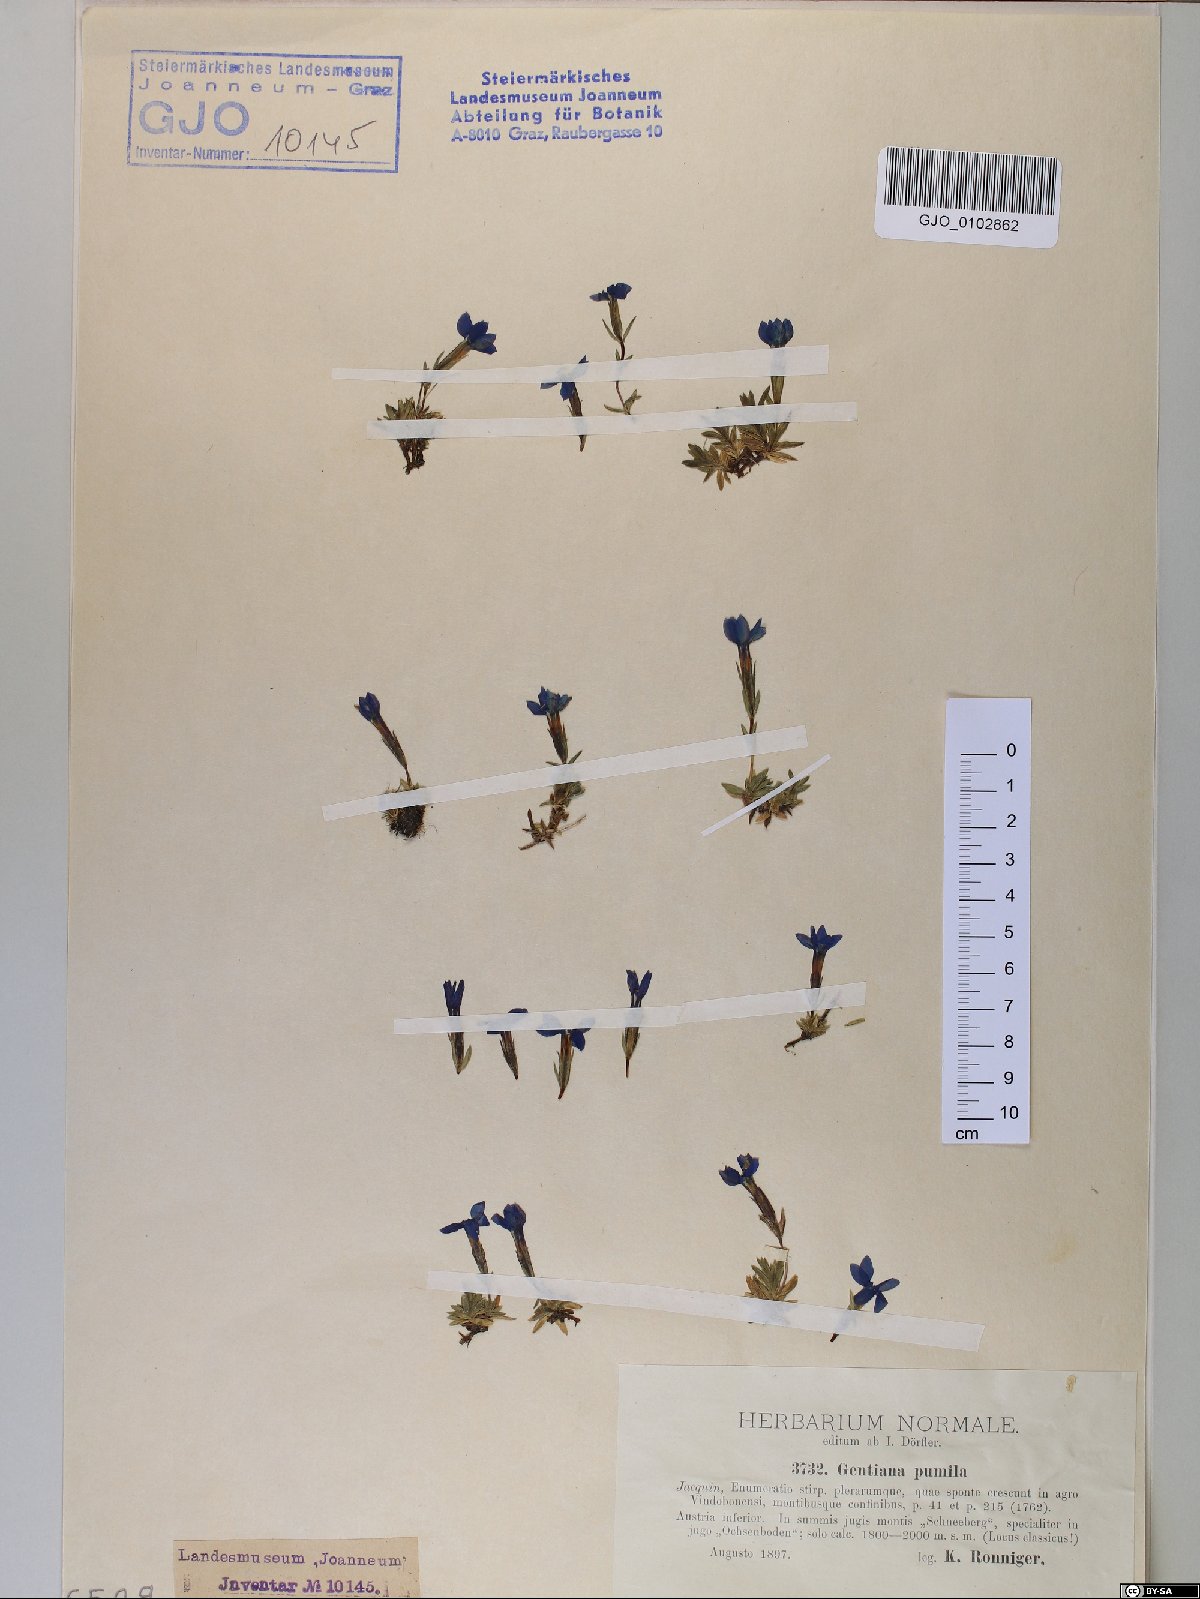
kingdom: Plantae
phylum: Tracheophyta
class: Magnoliopsida
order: Gentianales
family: Gentianaceae
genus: Gentiana
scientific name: Gentiana pumila
